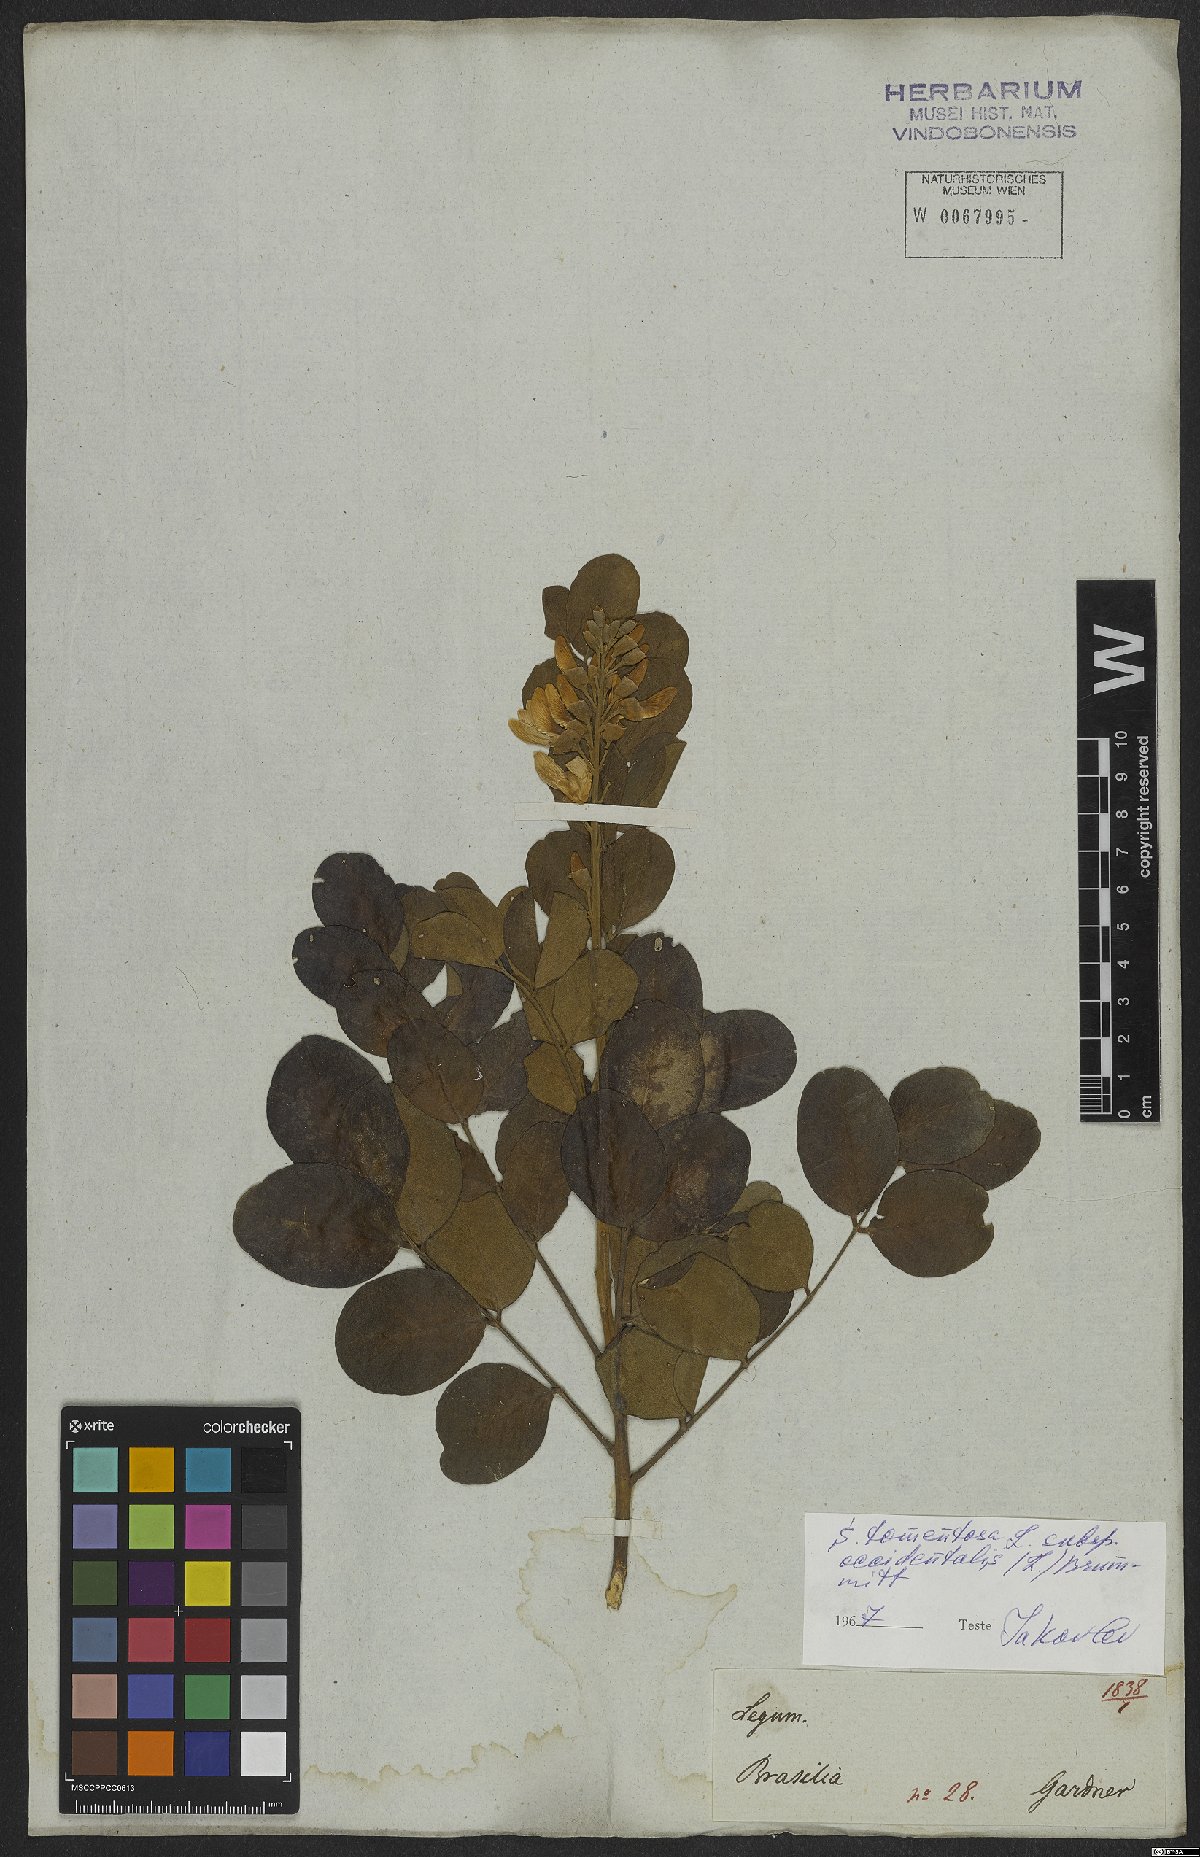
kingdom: Plantae
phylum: Tracheophyta
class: Magnoliopsida
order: Fabales
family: Fabaceae
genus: Sophora
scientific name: Sophora tomentosa
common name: Yellow necklacepod
